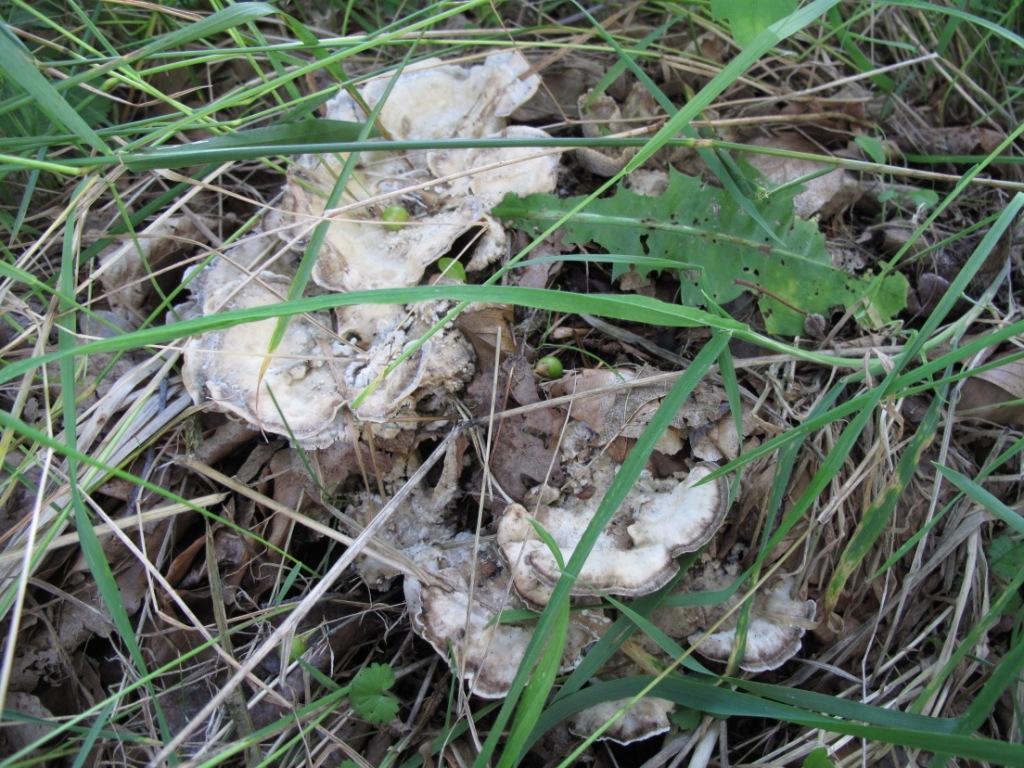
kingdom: Fungi
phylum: Basidiomycota
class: Agaricomycetes
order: Polyporales
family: Phanerochaetaceae
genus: Bjerkandera
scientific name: Bjerkandera adusta
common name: sveden sodporesvamp
